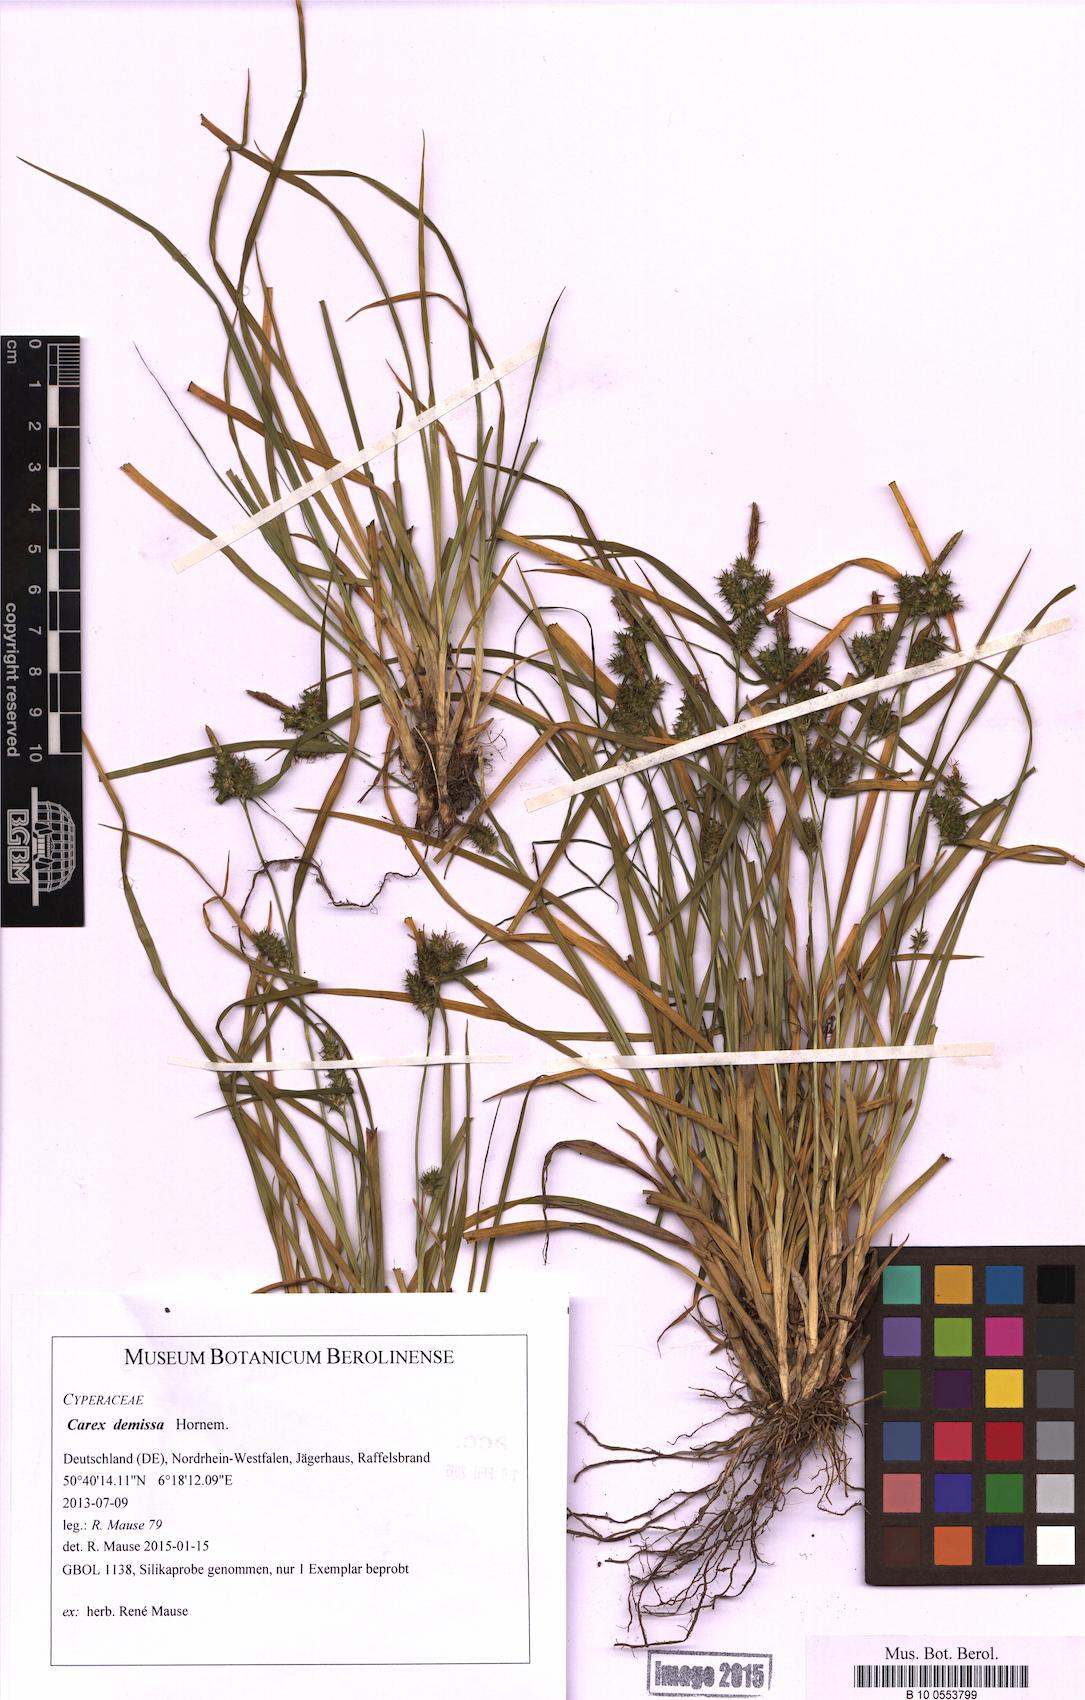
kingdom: Plantae
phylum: Tracheophyta
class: Liliopsida
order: Poales
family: Cyperaceae
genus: Carex
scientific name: Carex demissa
